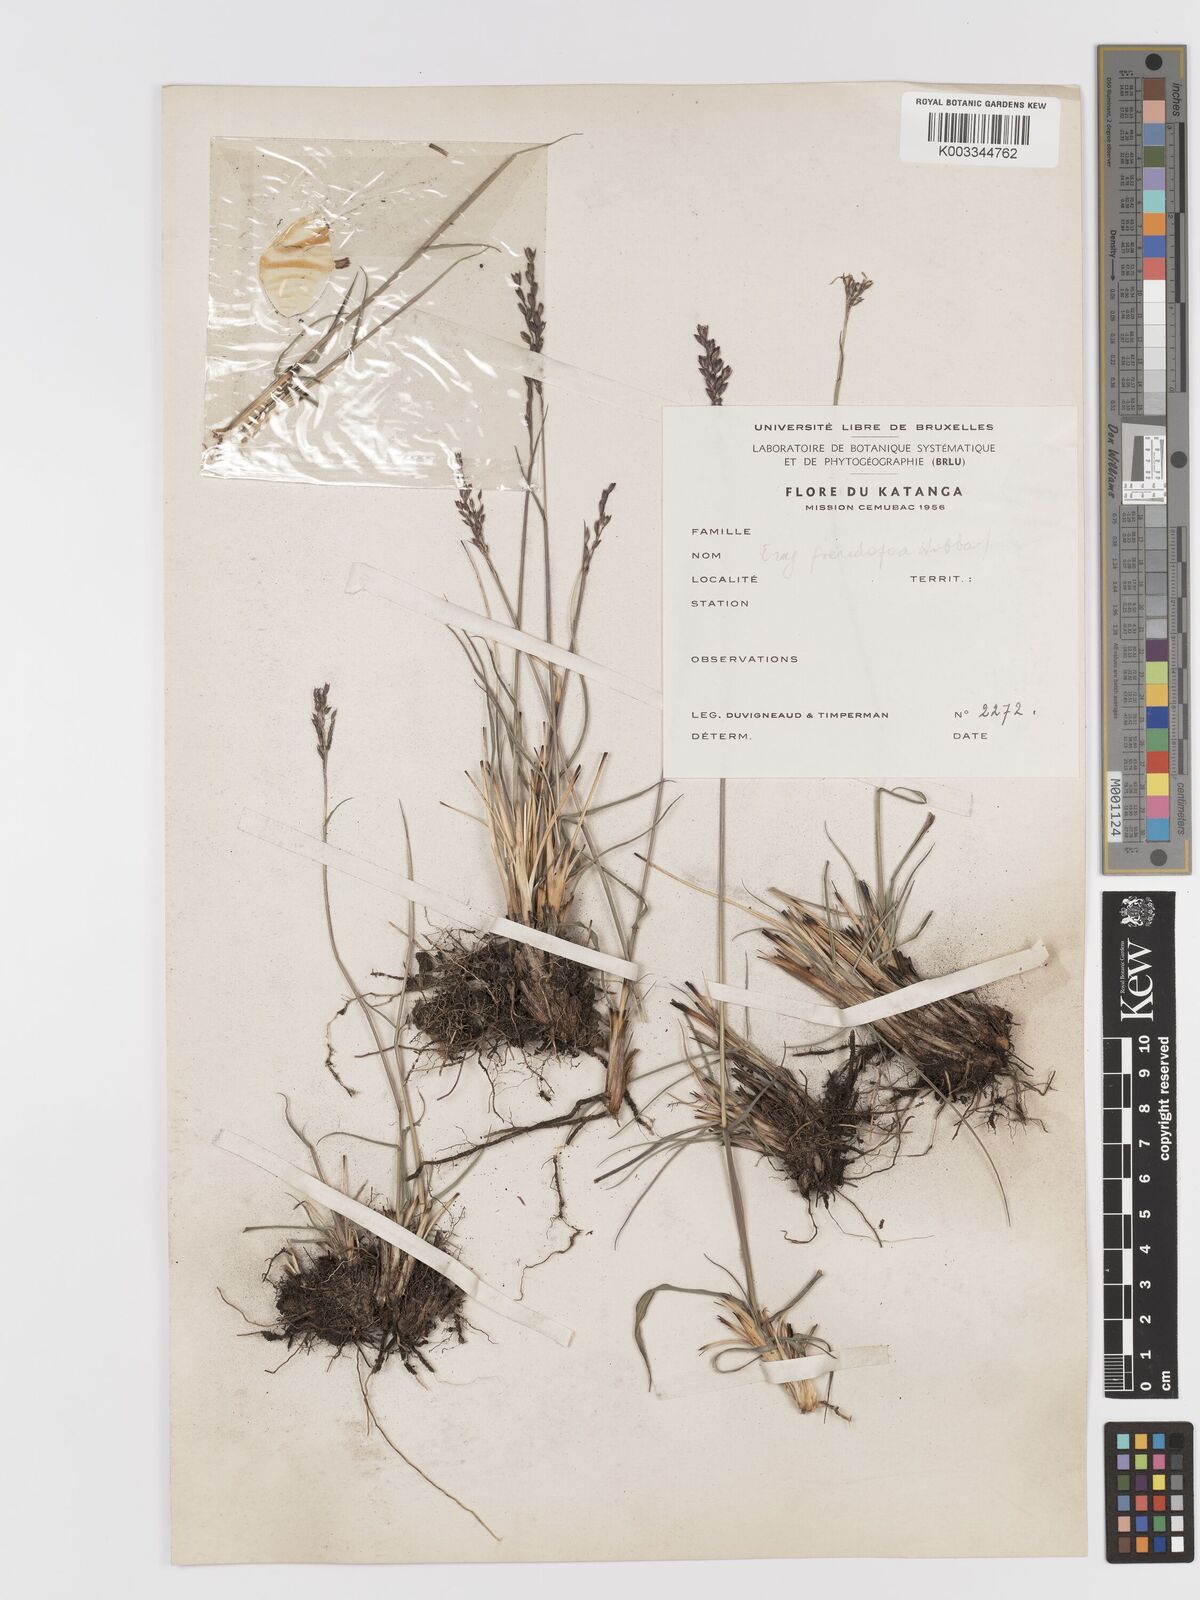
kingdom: Plantae
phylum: Tracheophyta
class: Liliopsida
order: Poales
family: Poaceae
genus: Eragrostis
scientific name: Eragrostis capensis
